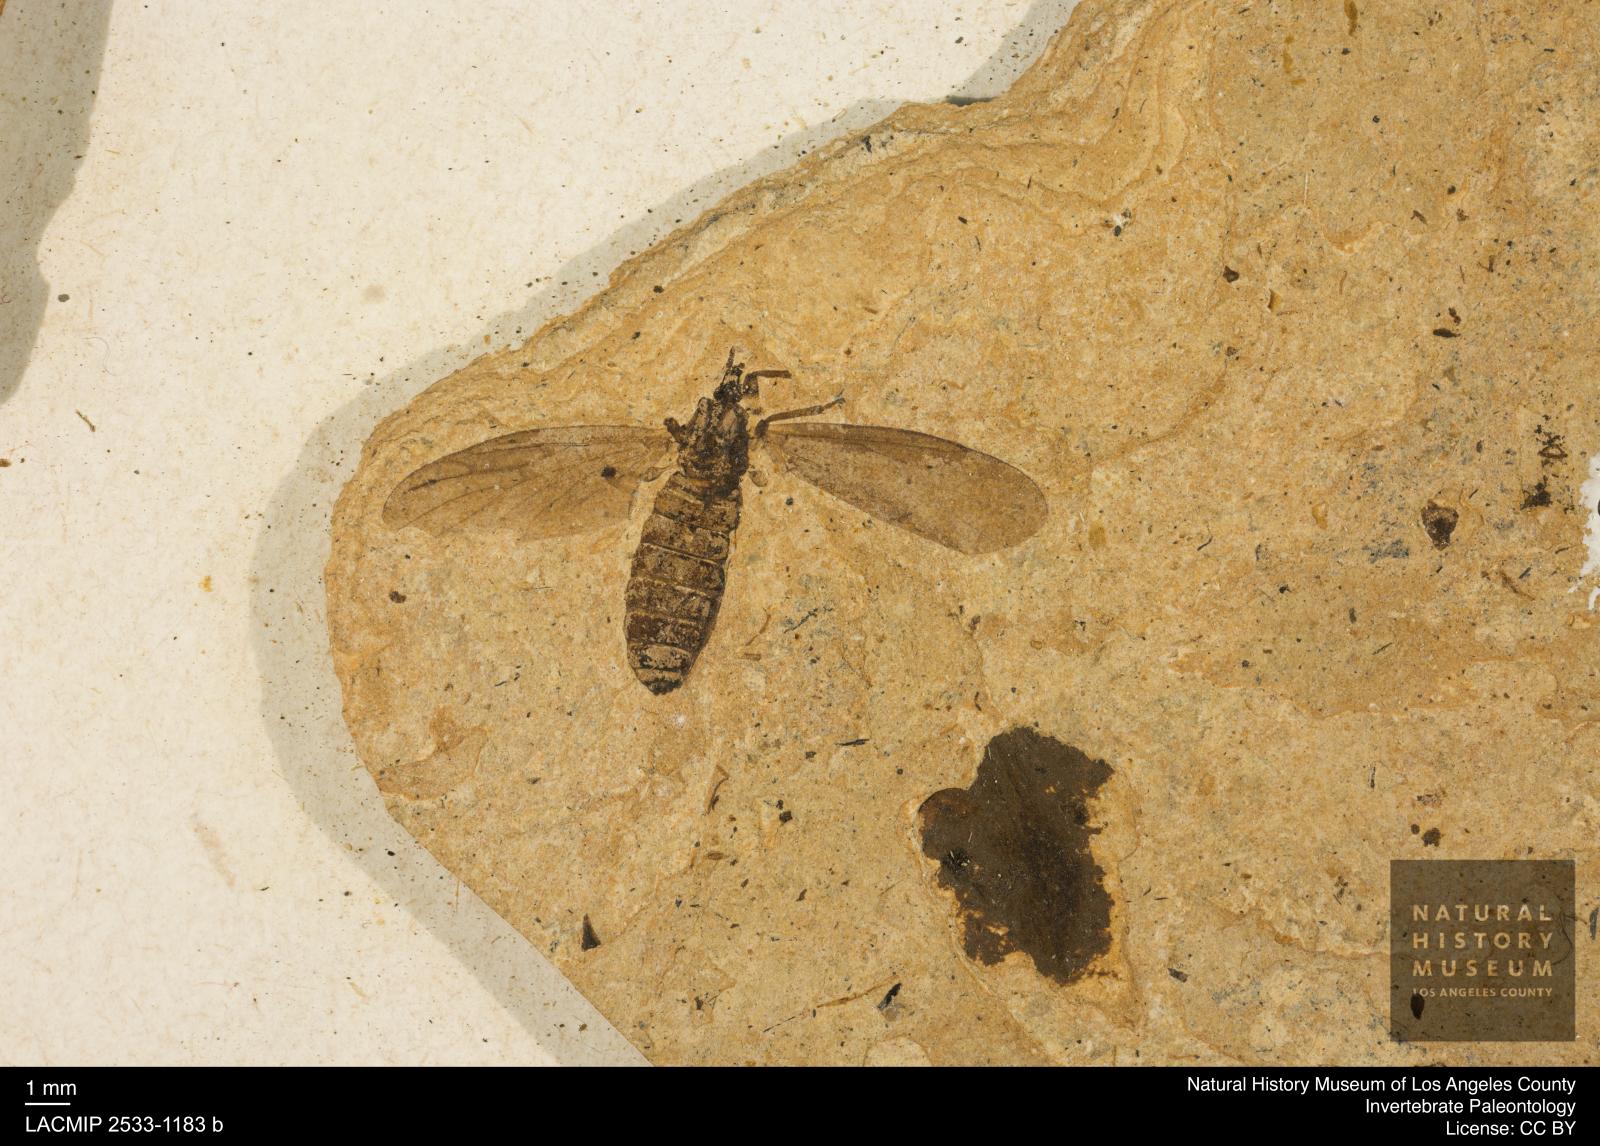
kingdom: Animalia
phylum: Arthropoda
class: Insecta
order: Diptera
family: Bibionidae
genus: Plecia
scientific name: Plecia hypogaea
